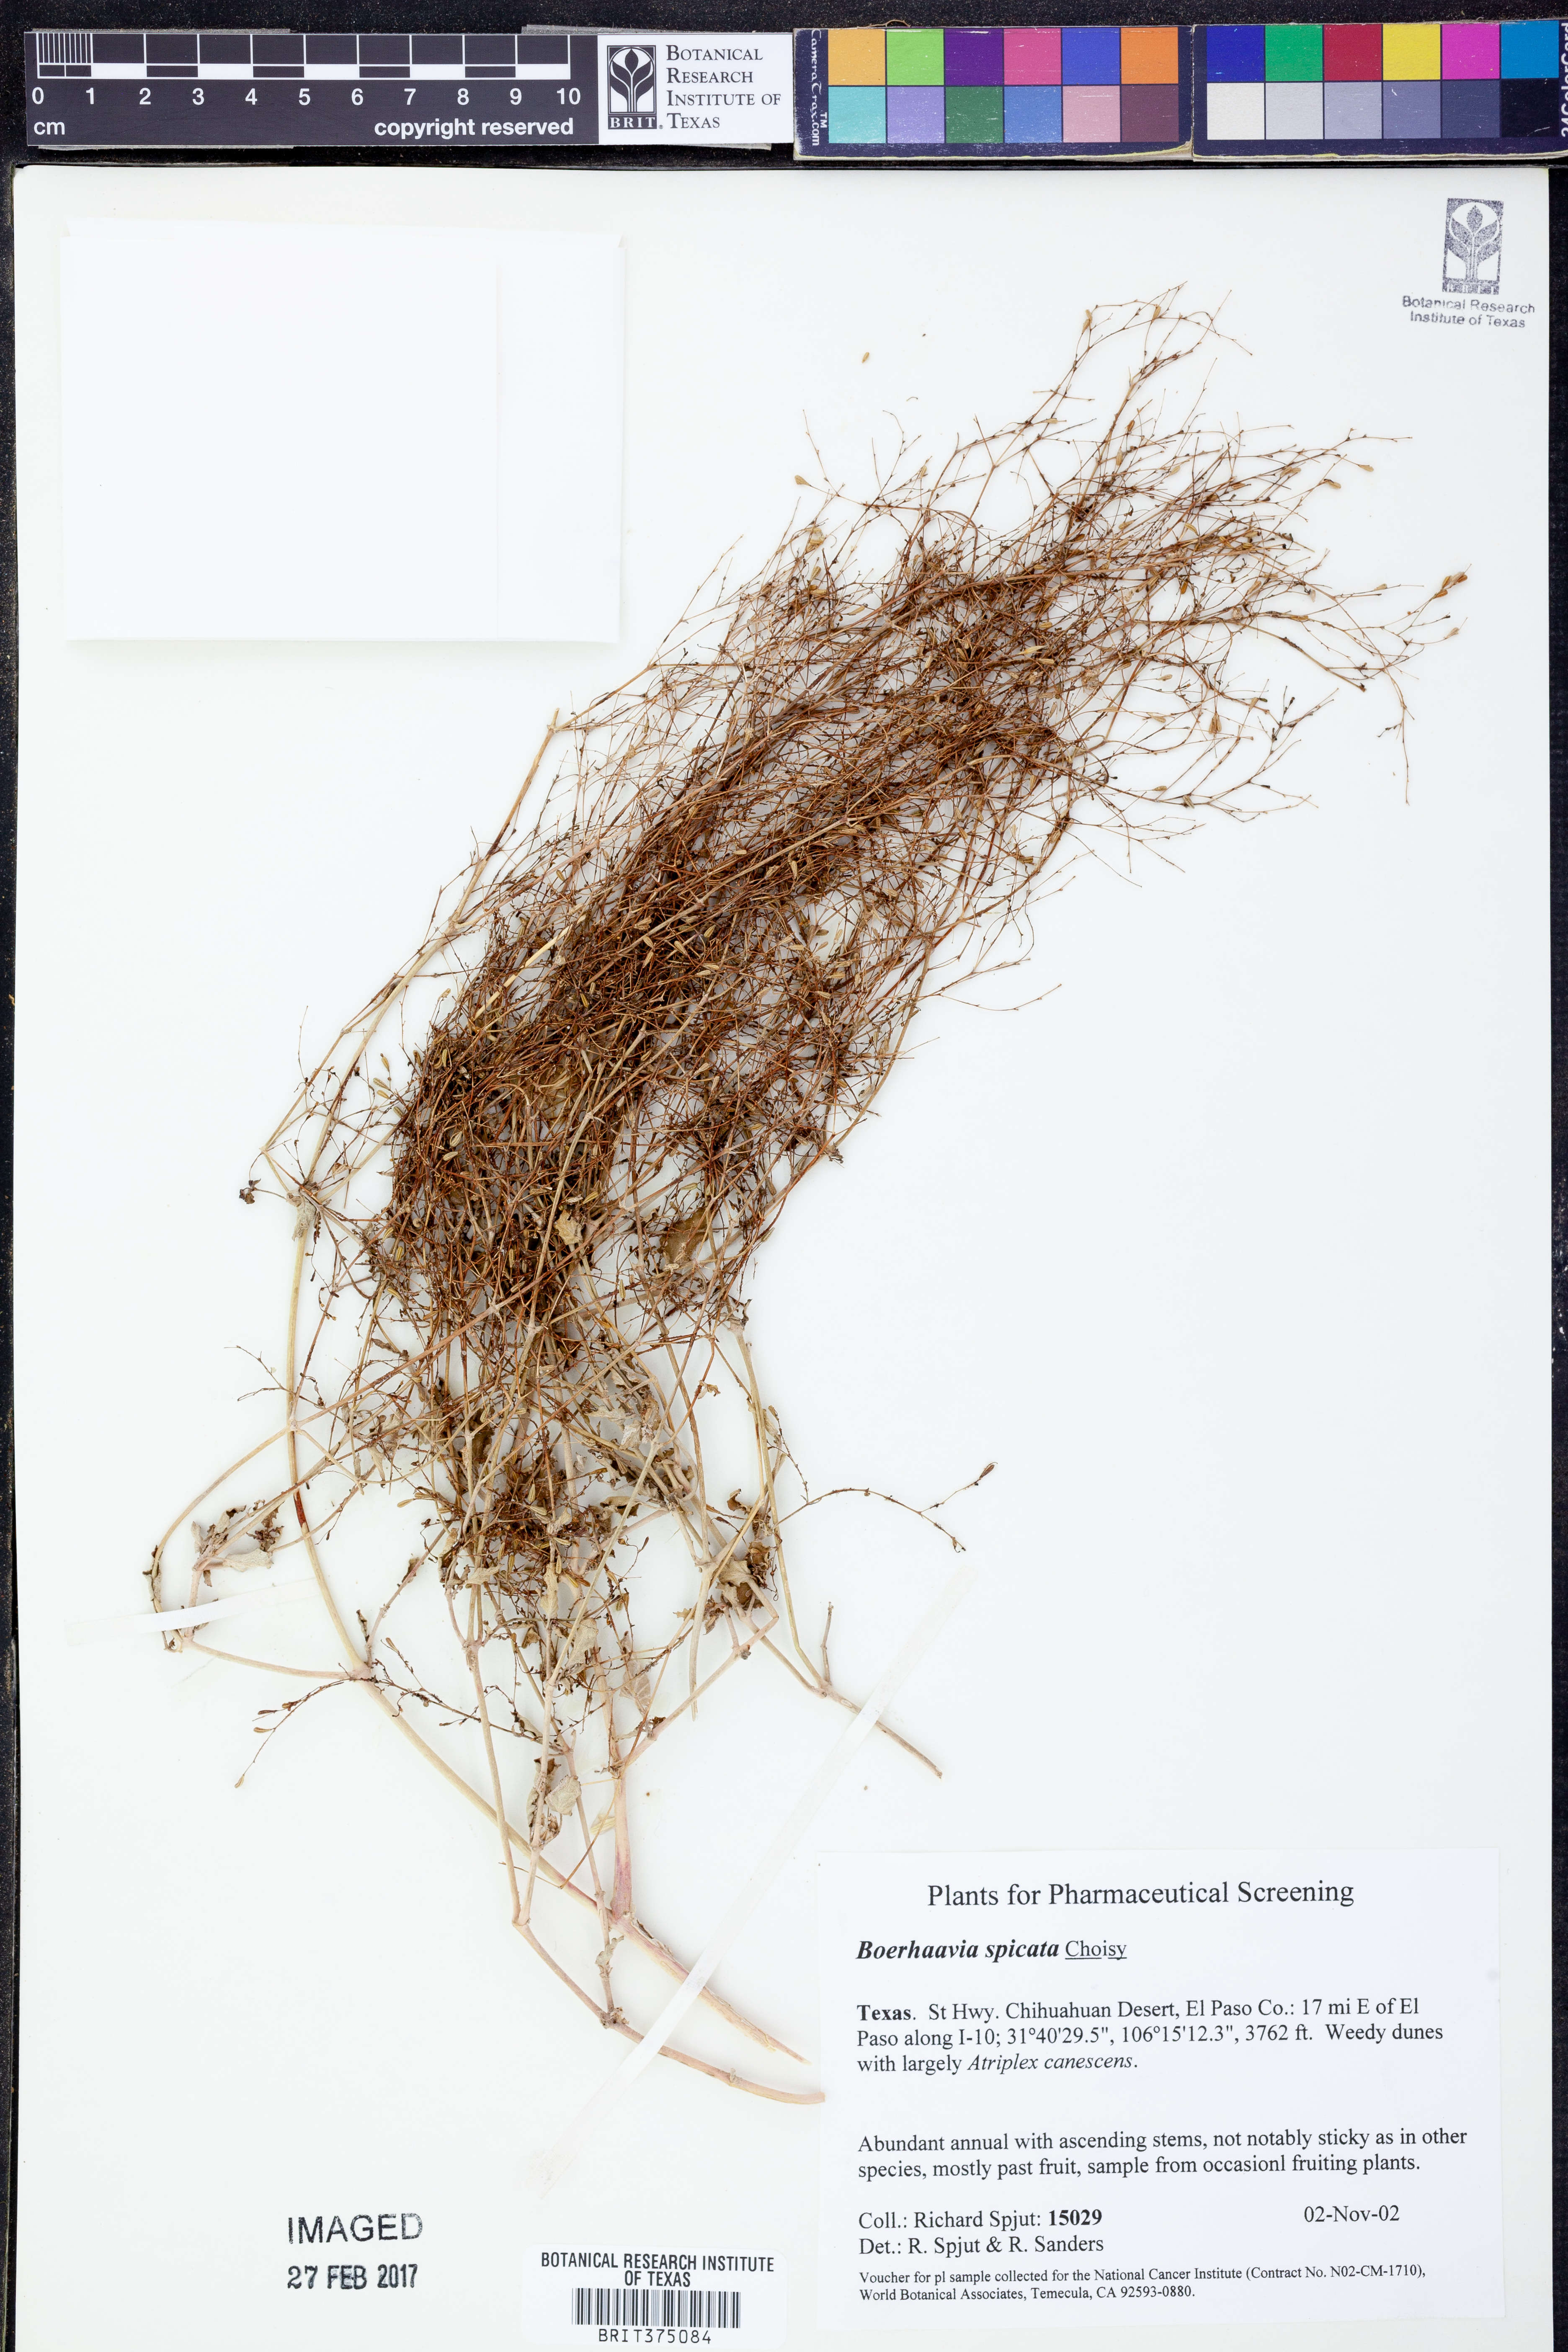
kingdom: Plantae
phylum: Tracheophyta
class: Magnoliopsida
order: Caryophyllales
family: Nyctaginaceae
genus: Boerhavia
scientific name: Boerhavia spicata
